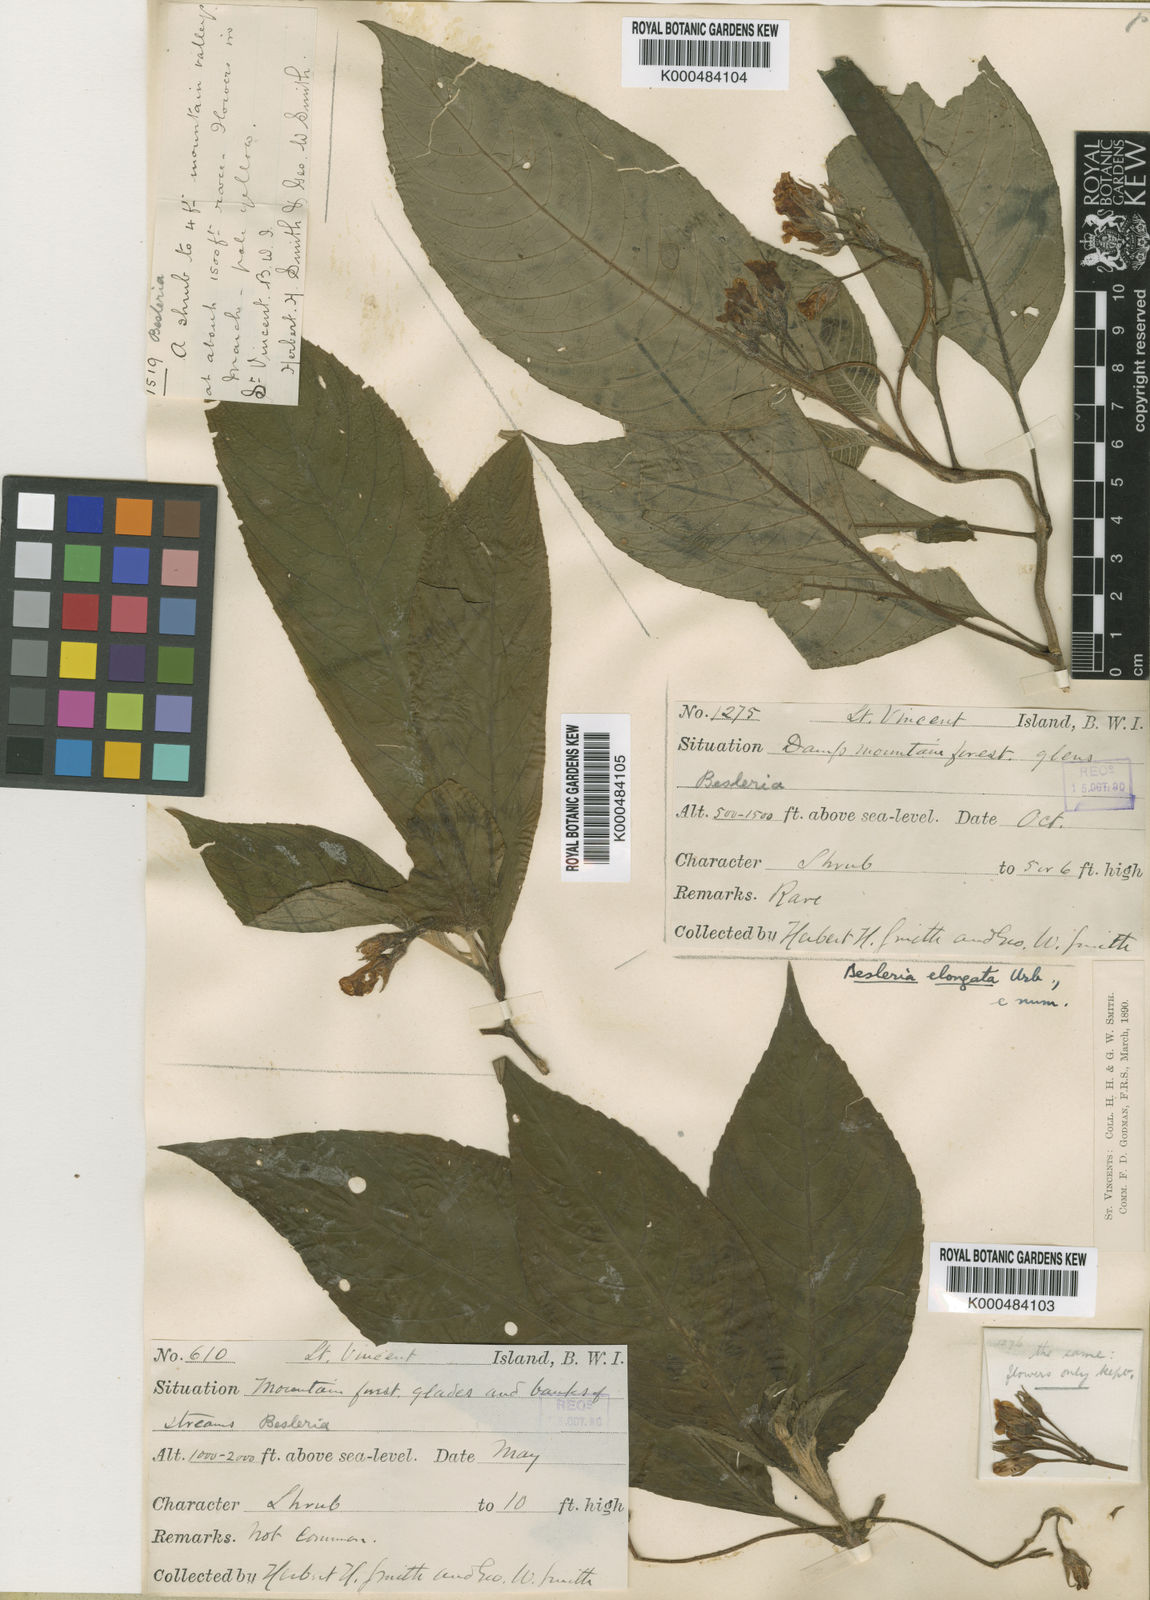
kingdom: Plantae
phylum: Tracheophyta
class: Magnoliopsida
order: Lamiales
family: Gesneriaceae
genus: Besleria
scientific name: Besleria elongata
